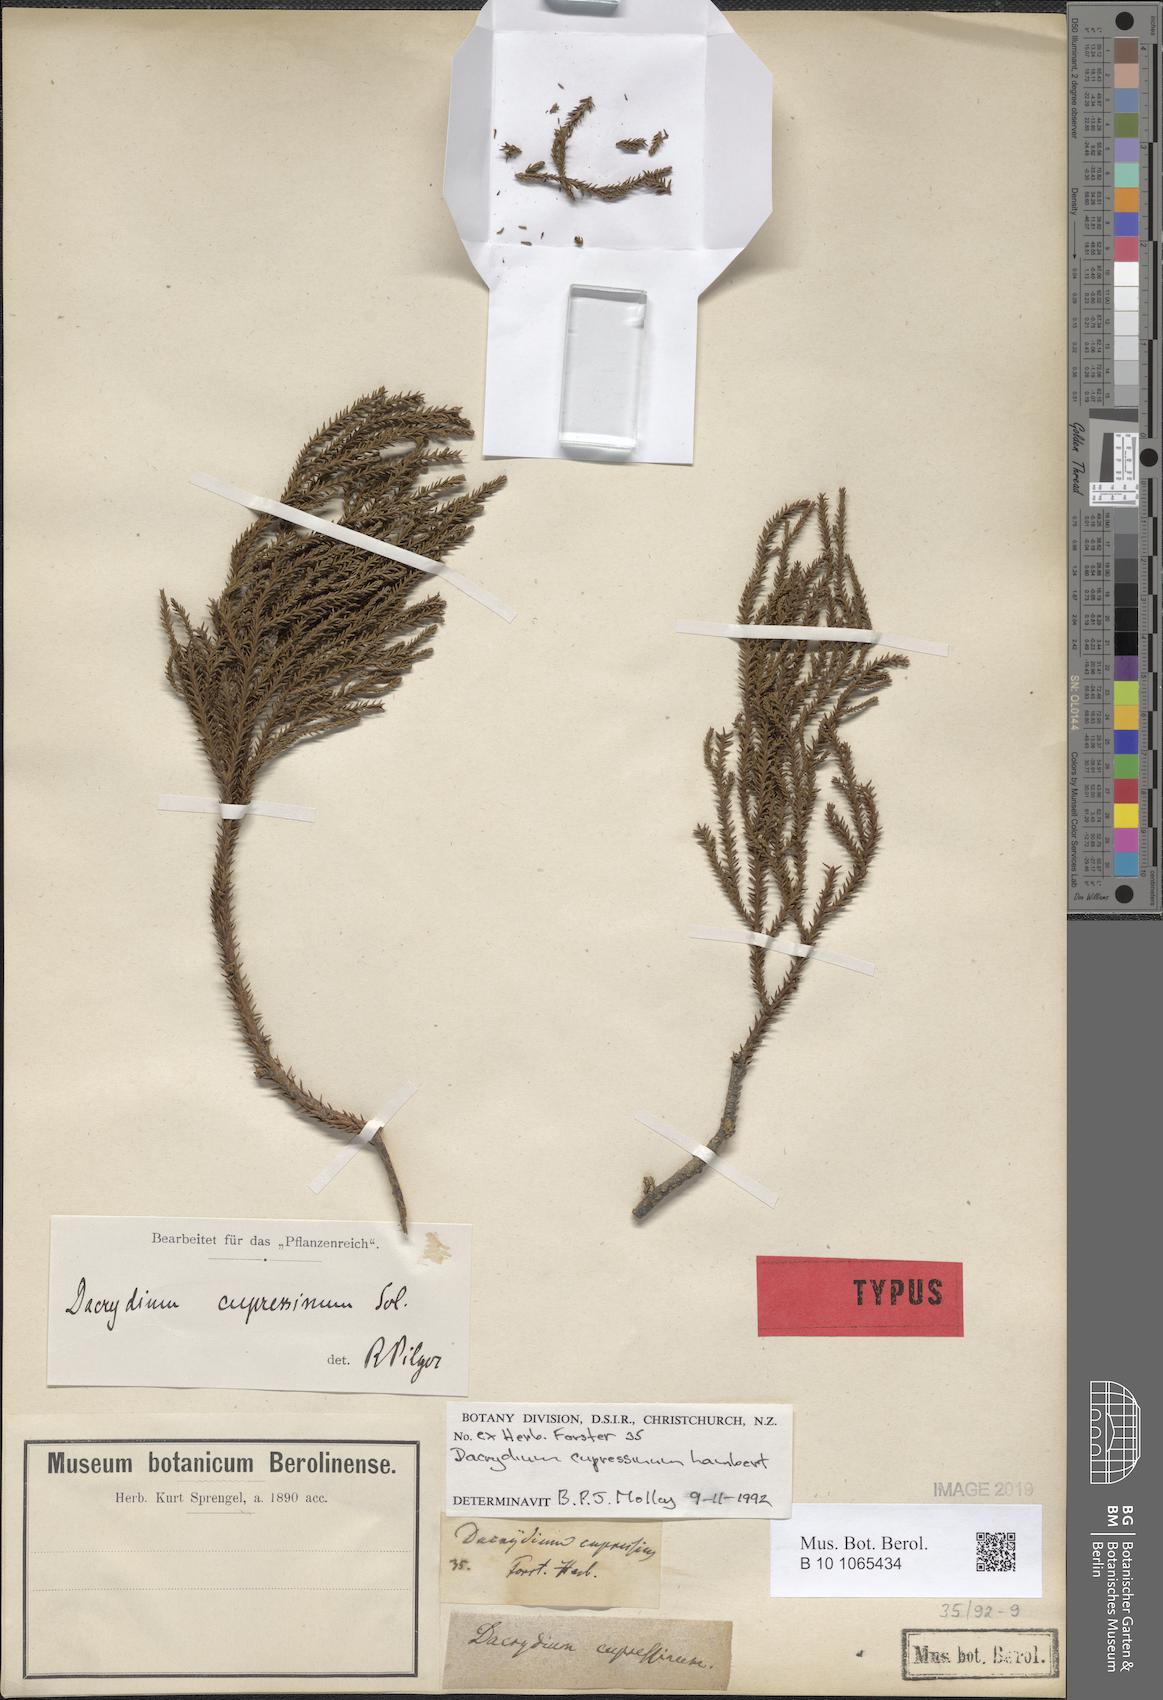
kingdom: Plantae
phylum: Tracheophyta
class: Pinopsida
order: Pinales
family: Podocarpaceae
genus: Dacrydium
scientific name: Dacrydium cupressinum
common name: Red pine
